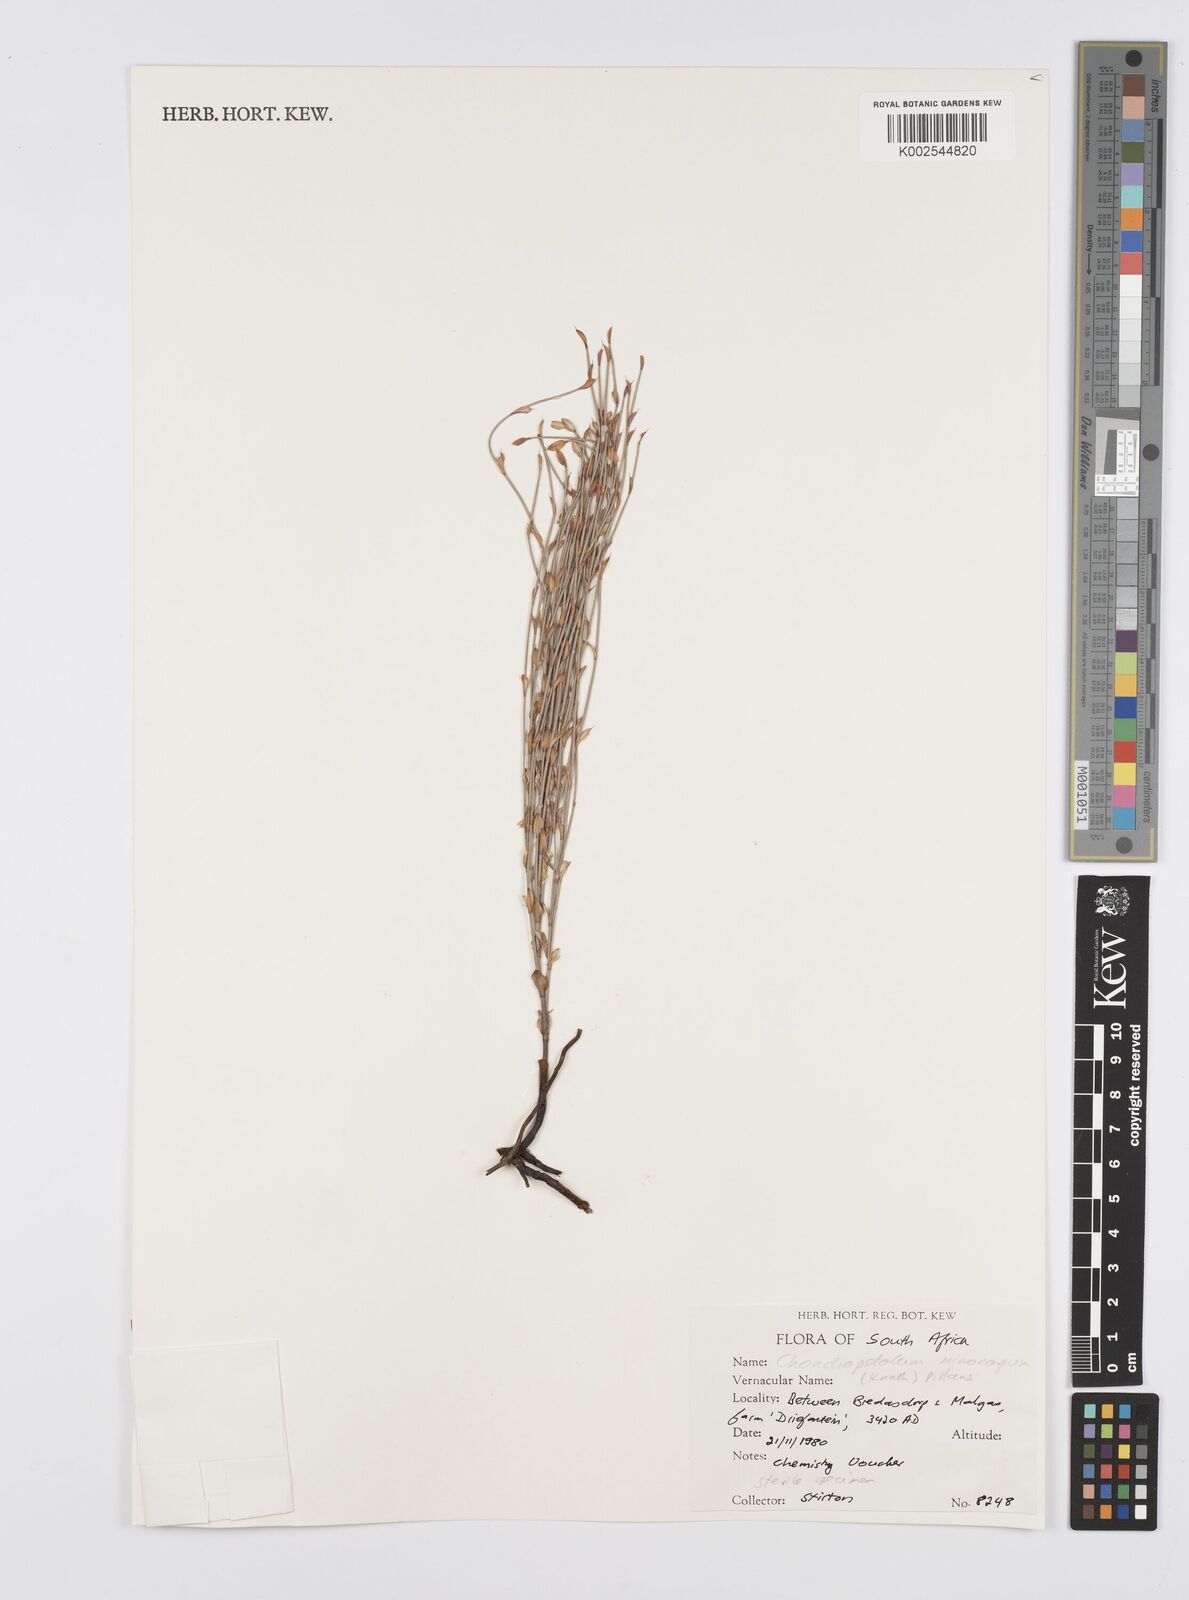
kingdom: Plantae
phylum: Tracheophyta
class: Liliopsida
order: Poales
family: Restionaceae
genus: Elegia
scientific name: Elegia microcarpa
